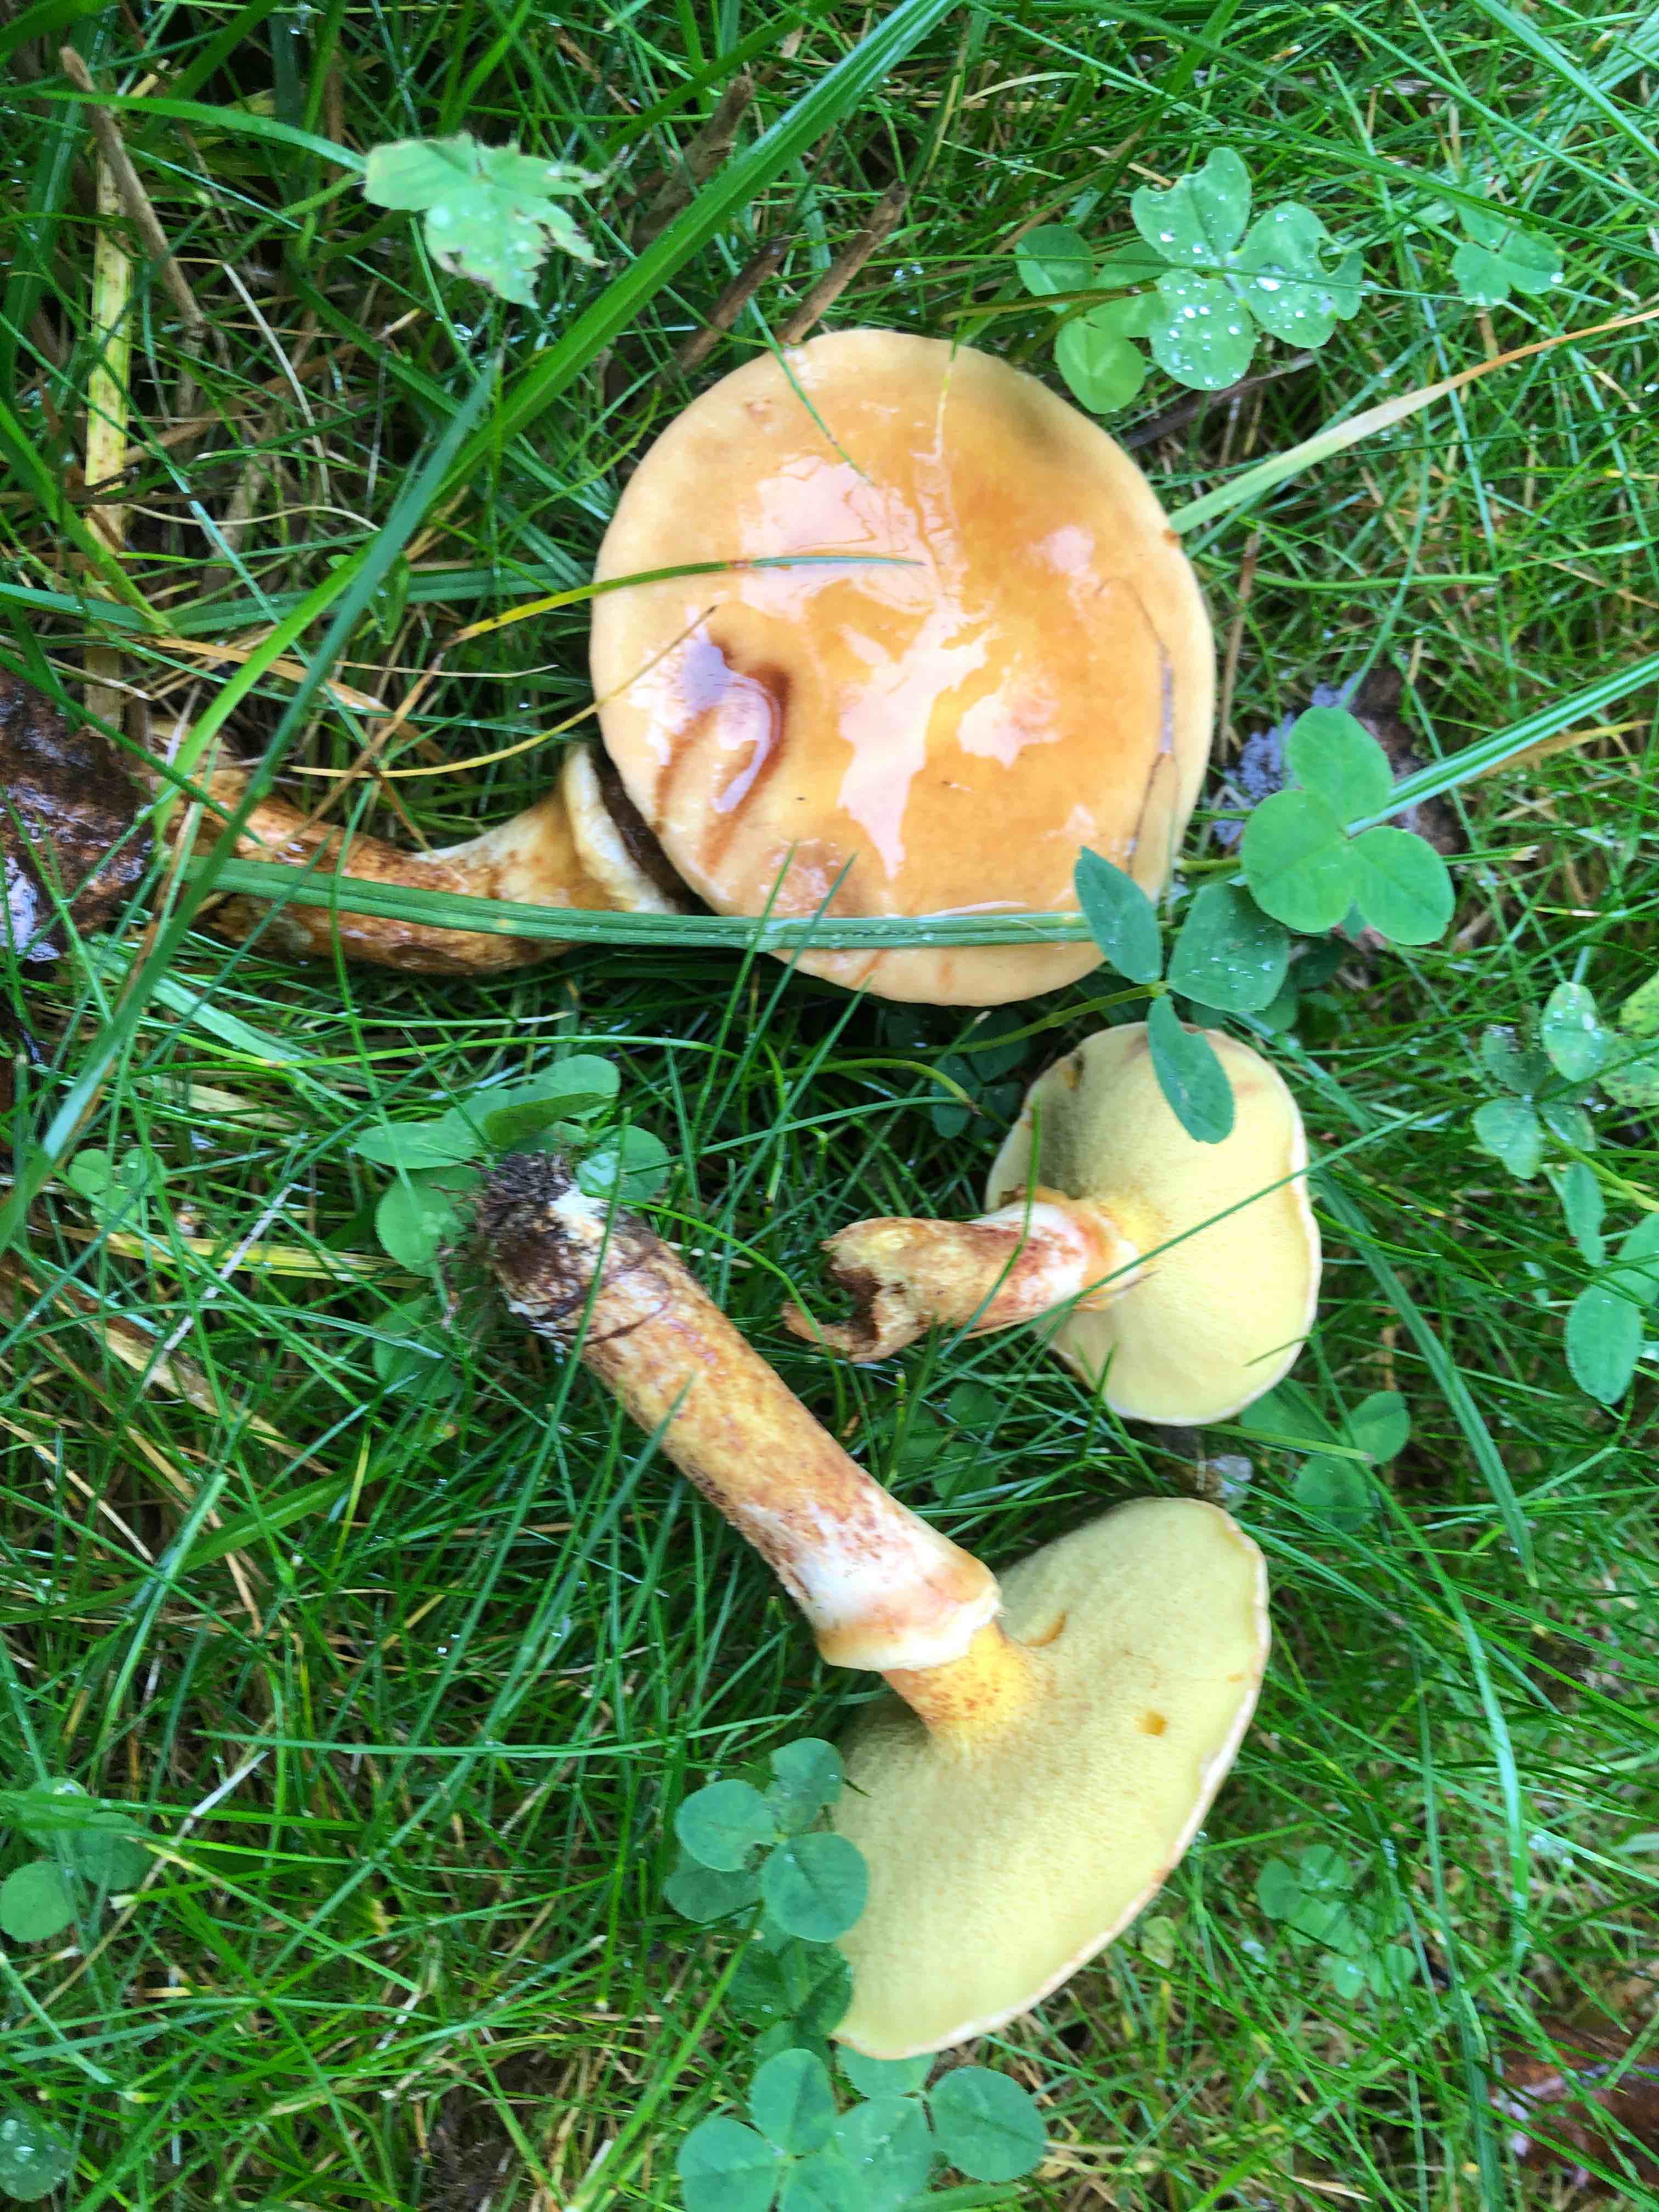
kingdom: Fungi
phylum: Basidiomycota
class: Agaricomycetes
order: Boletales
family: Suillaceae
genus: Suillus
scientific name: Suillus grevillei
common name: lærke-slimrørhat
